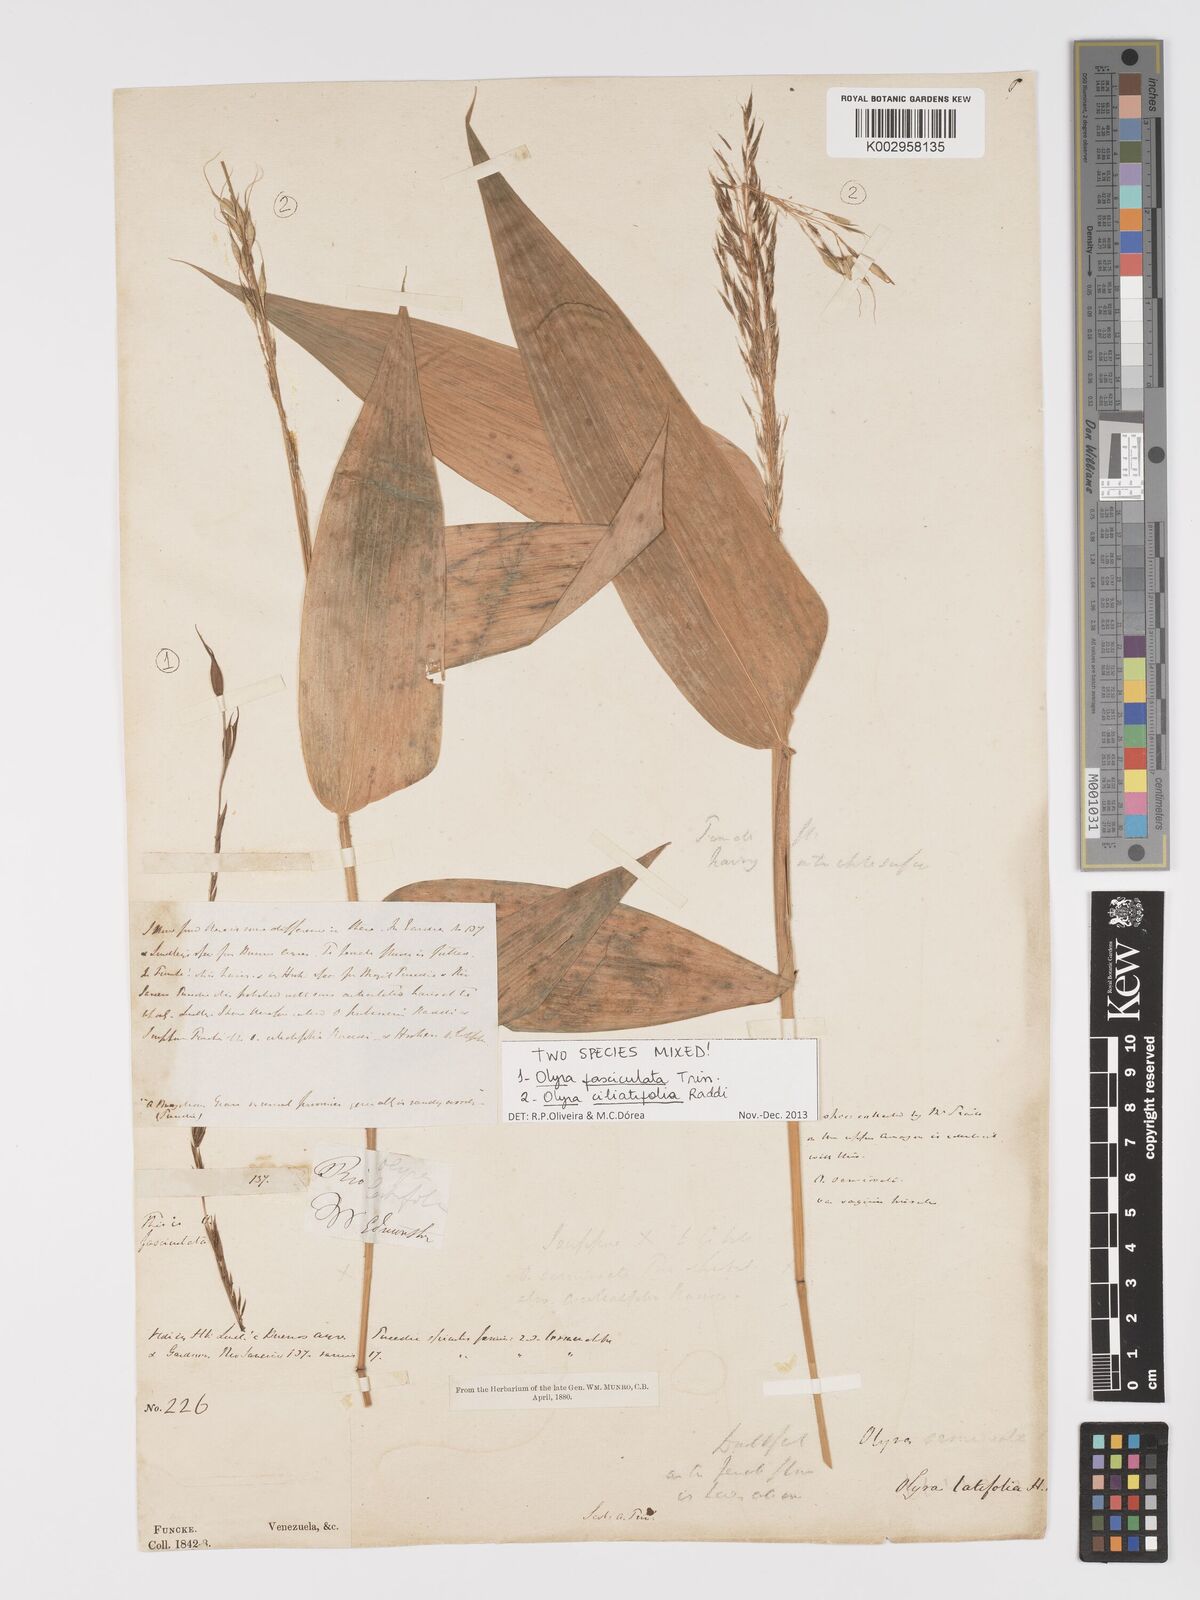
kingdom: Plantae
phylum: Tracheophyta
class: Liliopsida
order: Poales
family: Poaceae
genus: Olyra
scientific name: Olyra ciliatifolia
